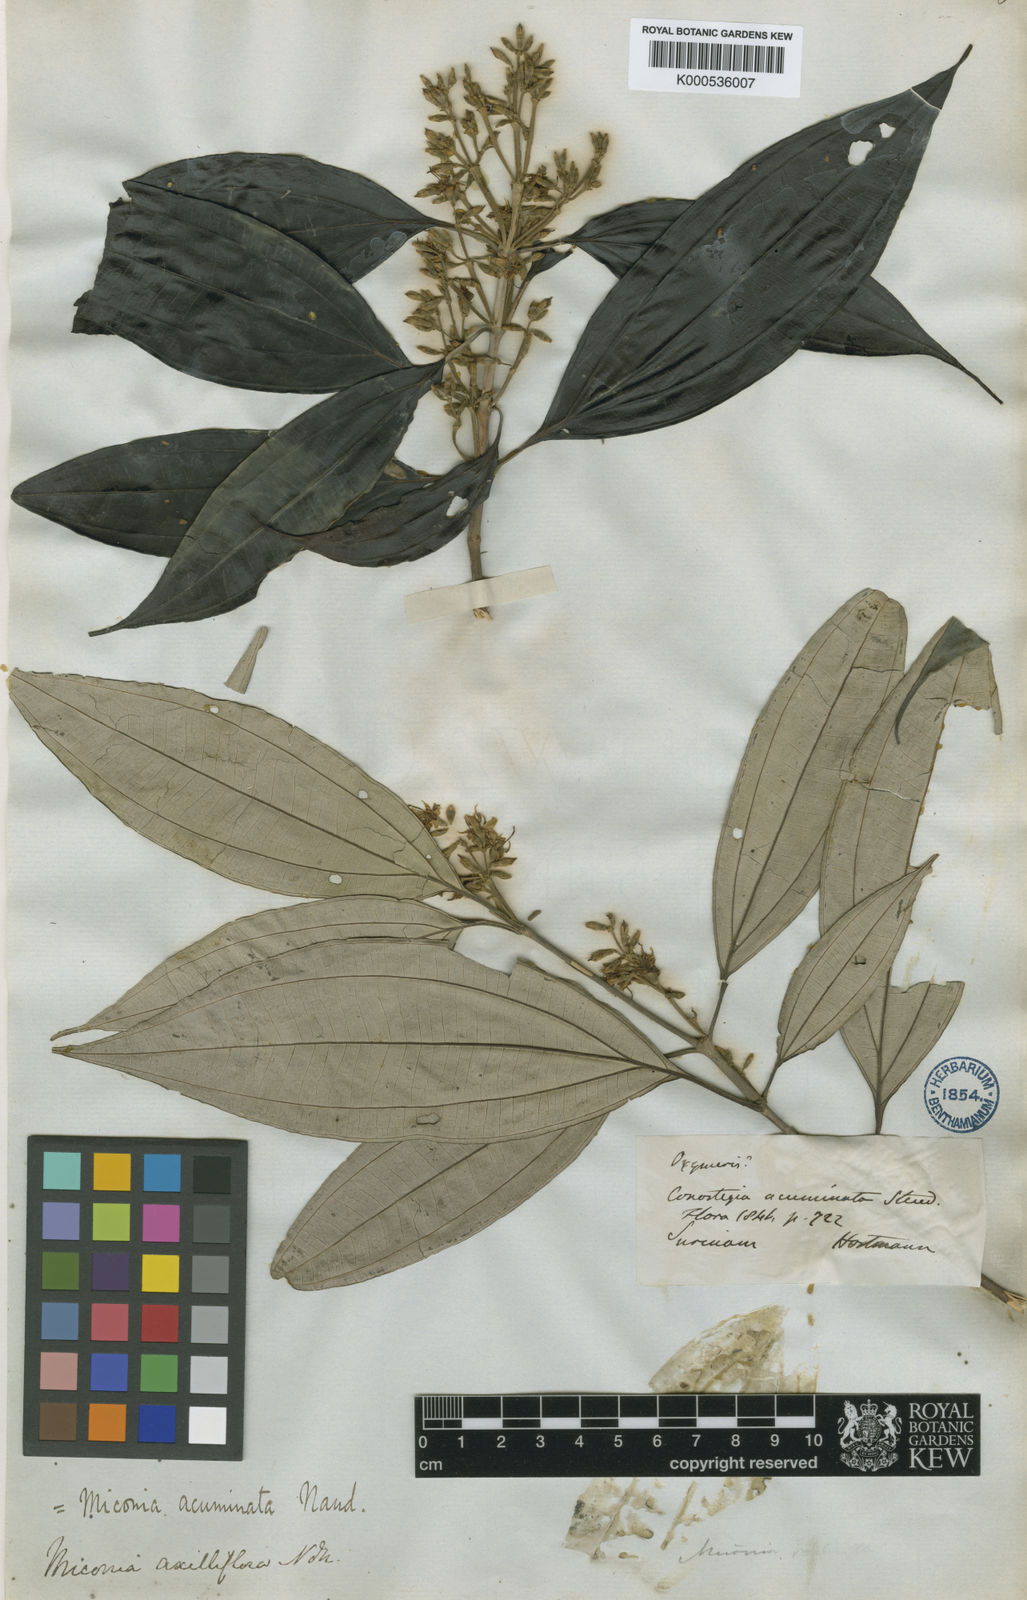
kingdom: Plantae
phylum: Tracheophyta
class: Magnoliopsida
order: Myrtales
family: Melastomataceae
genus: Miconia
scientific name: Miconia acuminata
